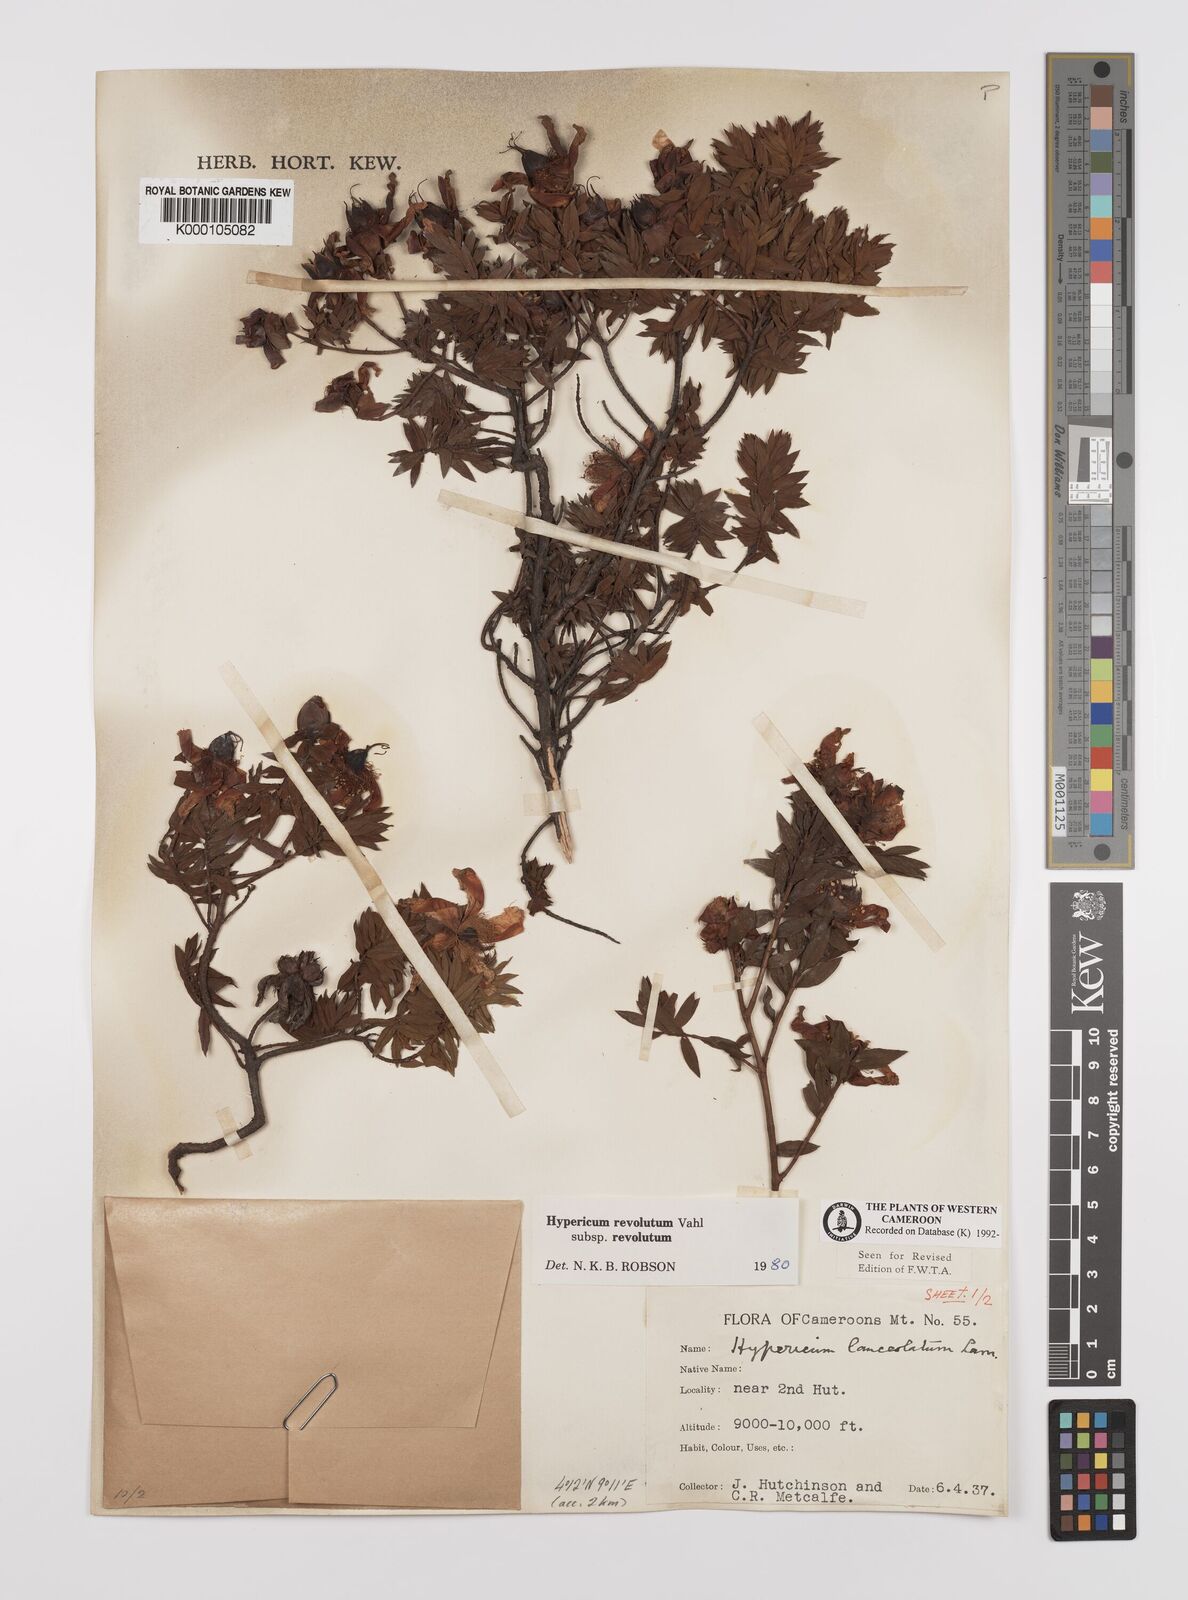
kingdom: Plantae
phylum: Tracheophyta
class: Magnoliopsida
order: Malpighiales
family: Hypericaceae
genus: Hypericum
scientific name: Hypericum revolutum
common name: Curry bush
